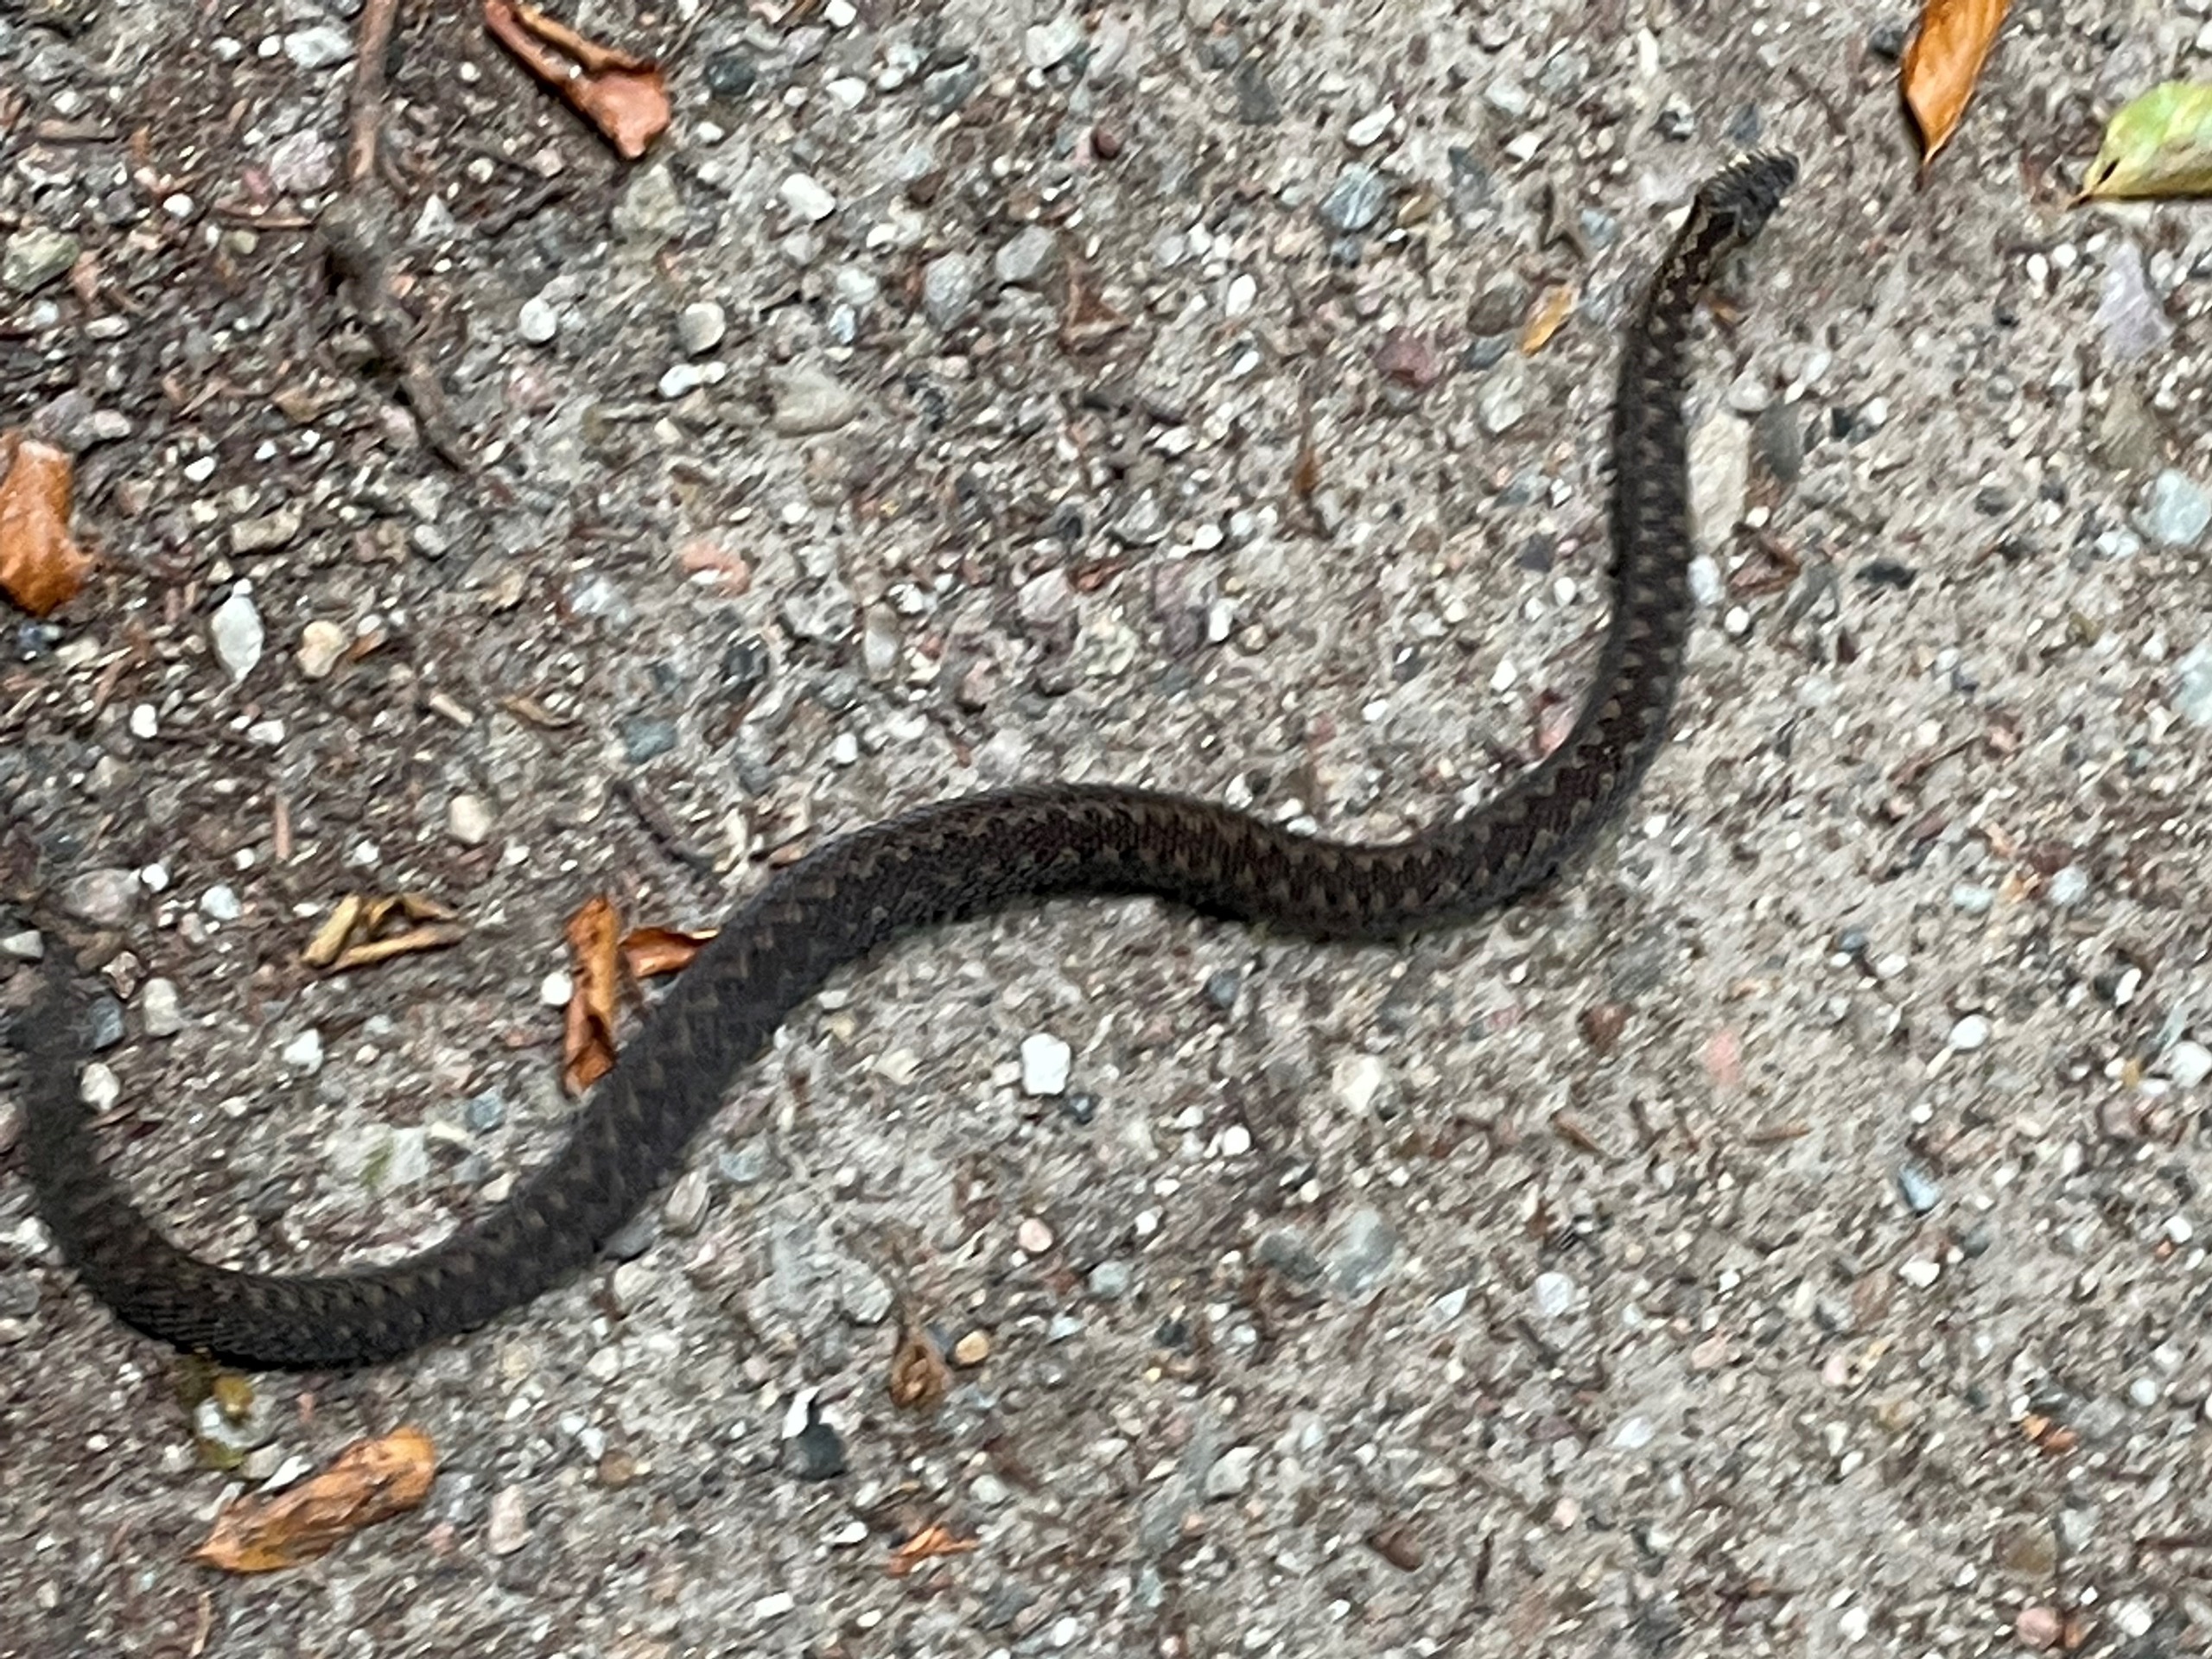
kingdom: Animalia
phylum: Chordata
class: Squamata
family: Viperidae
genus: Vipera
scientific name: Vipera berus
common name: Hugorm
